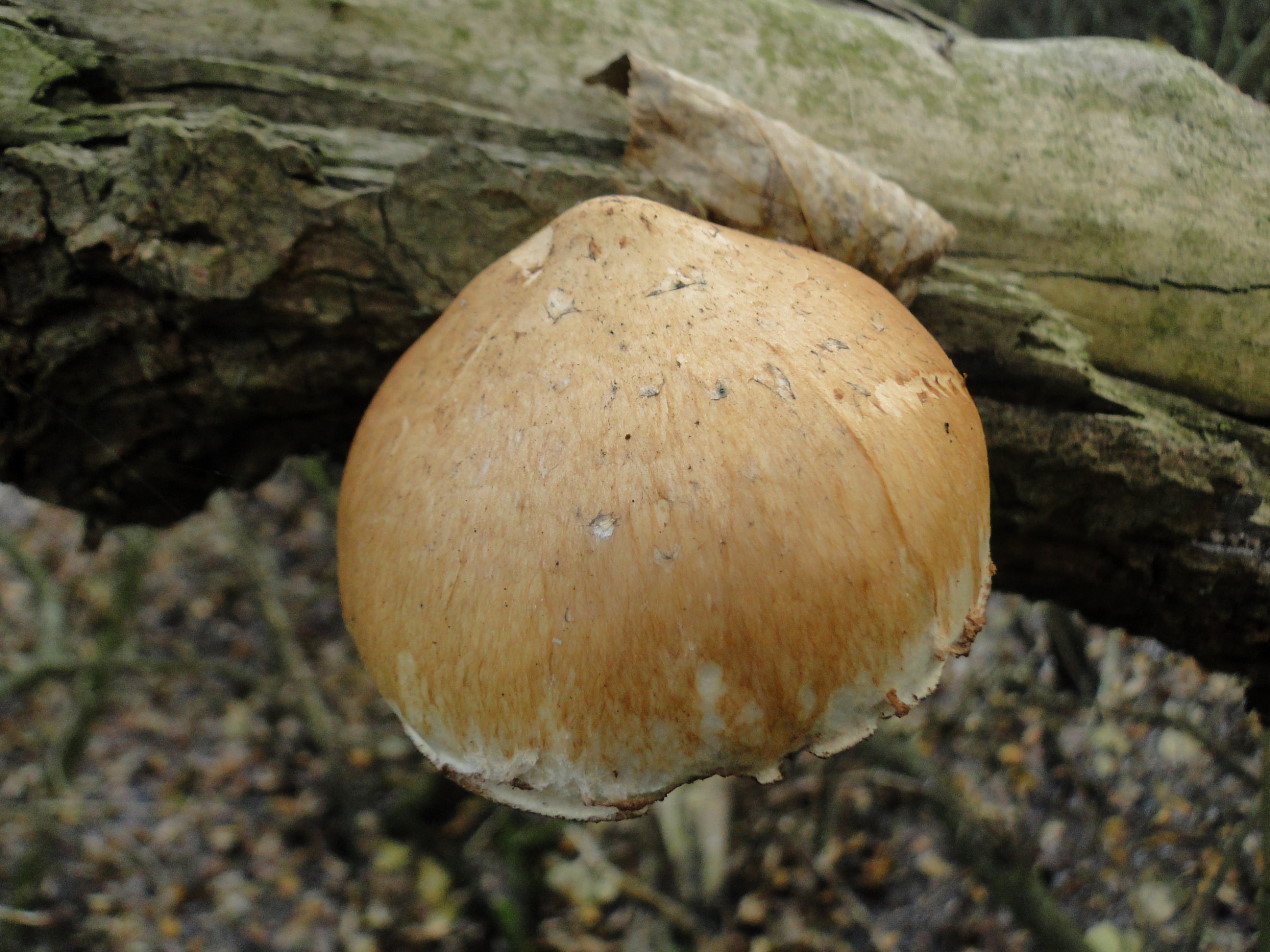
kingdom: Fungi
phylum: Basidiomycota
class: Agaricomycetes
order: Agaricales
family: Strophariaceae
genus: Pholiota
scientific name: Pholiota populnea
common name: poppel-kæmpeskælhat
